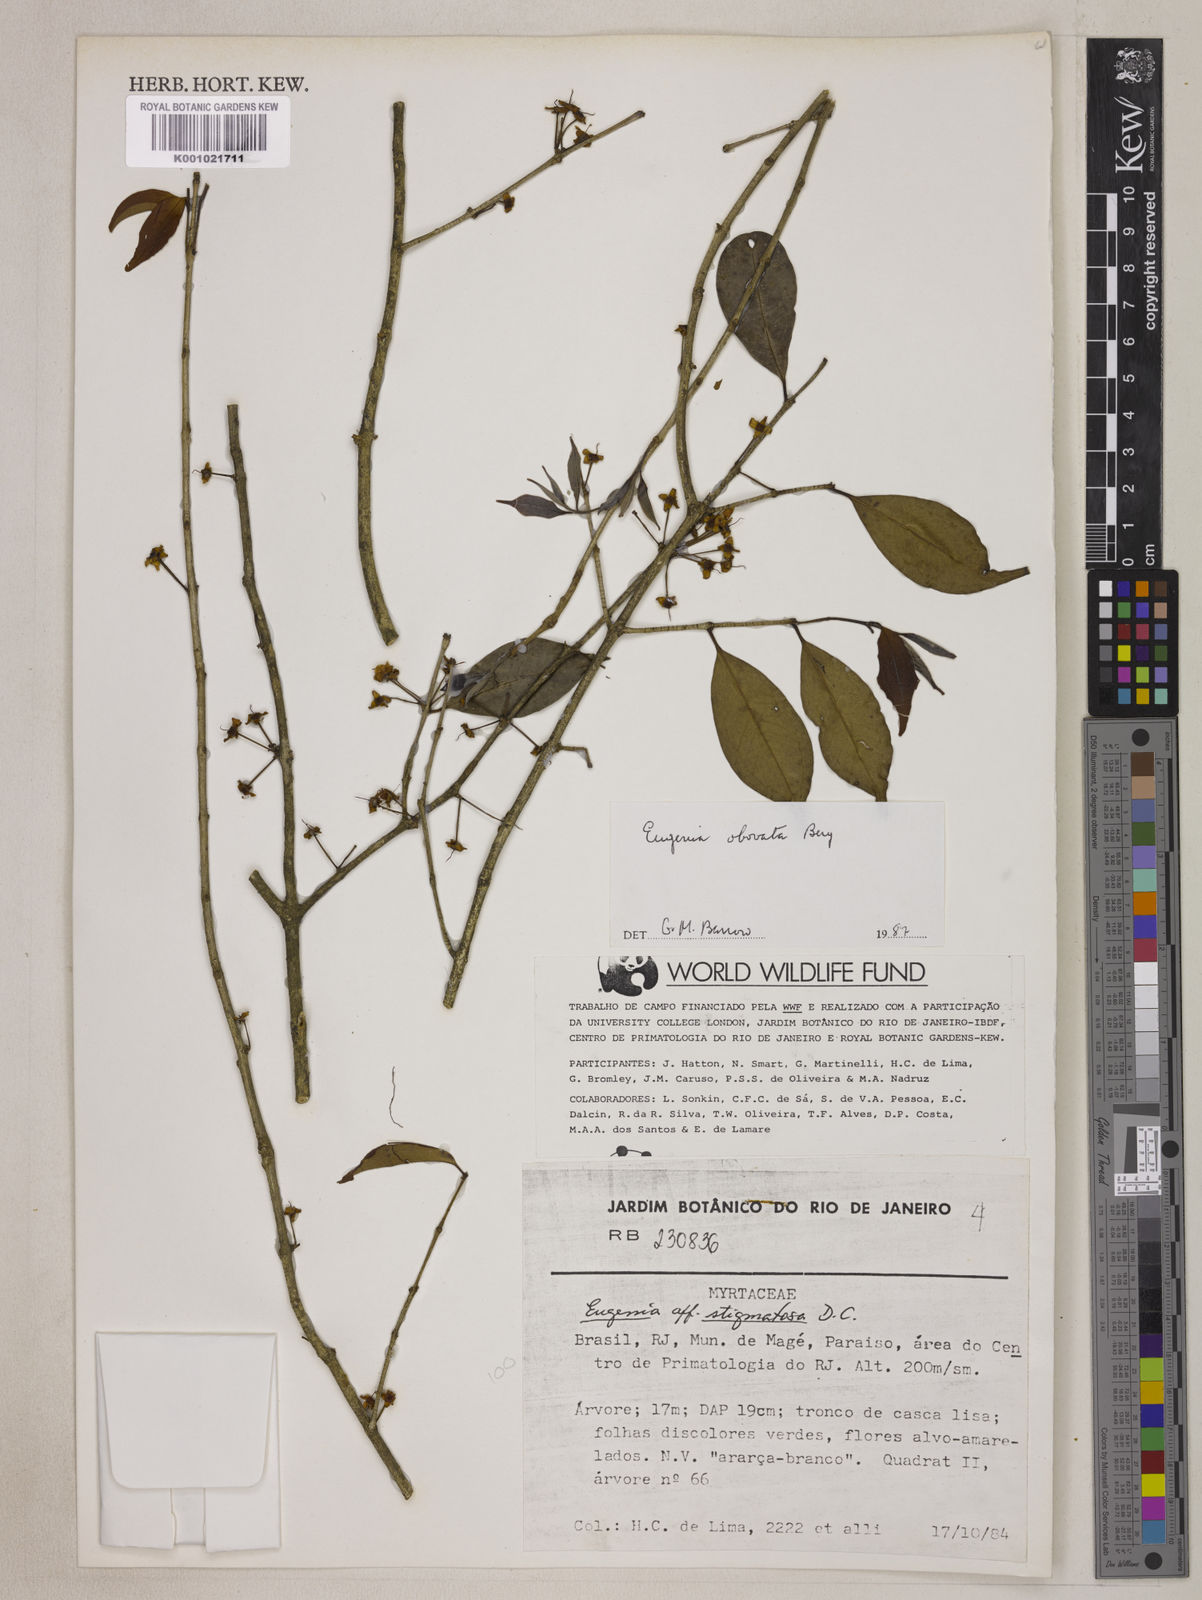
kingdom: Plantae
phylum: Tracheophyta
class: Magnoliopsida
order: Myrtales
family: Myrtaceae
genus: Eugenia
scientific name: Eugenia brevistyla
